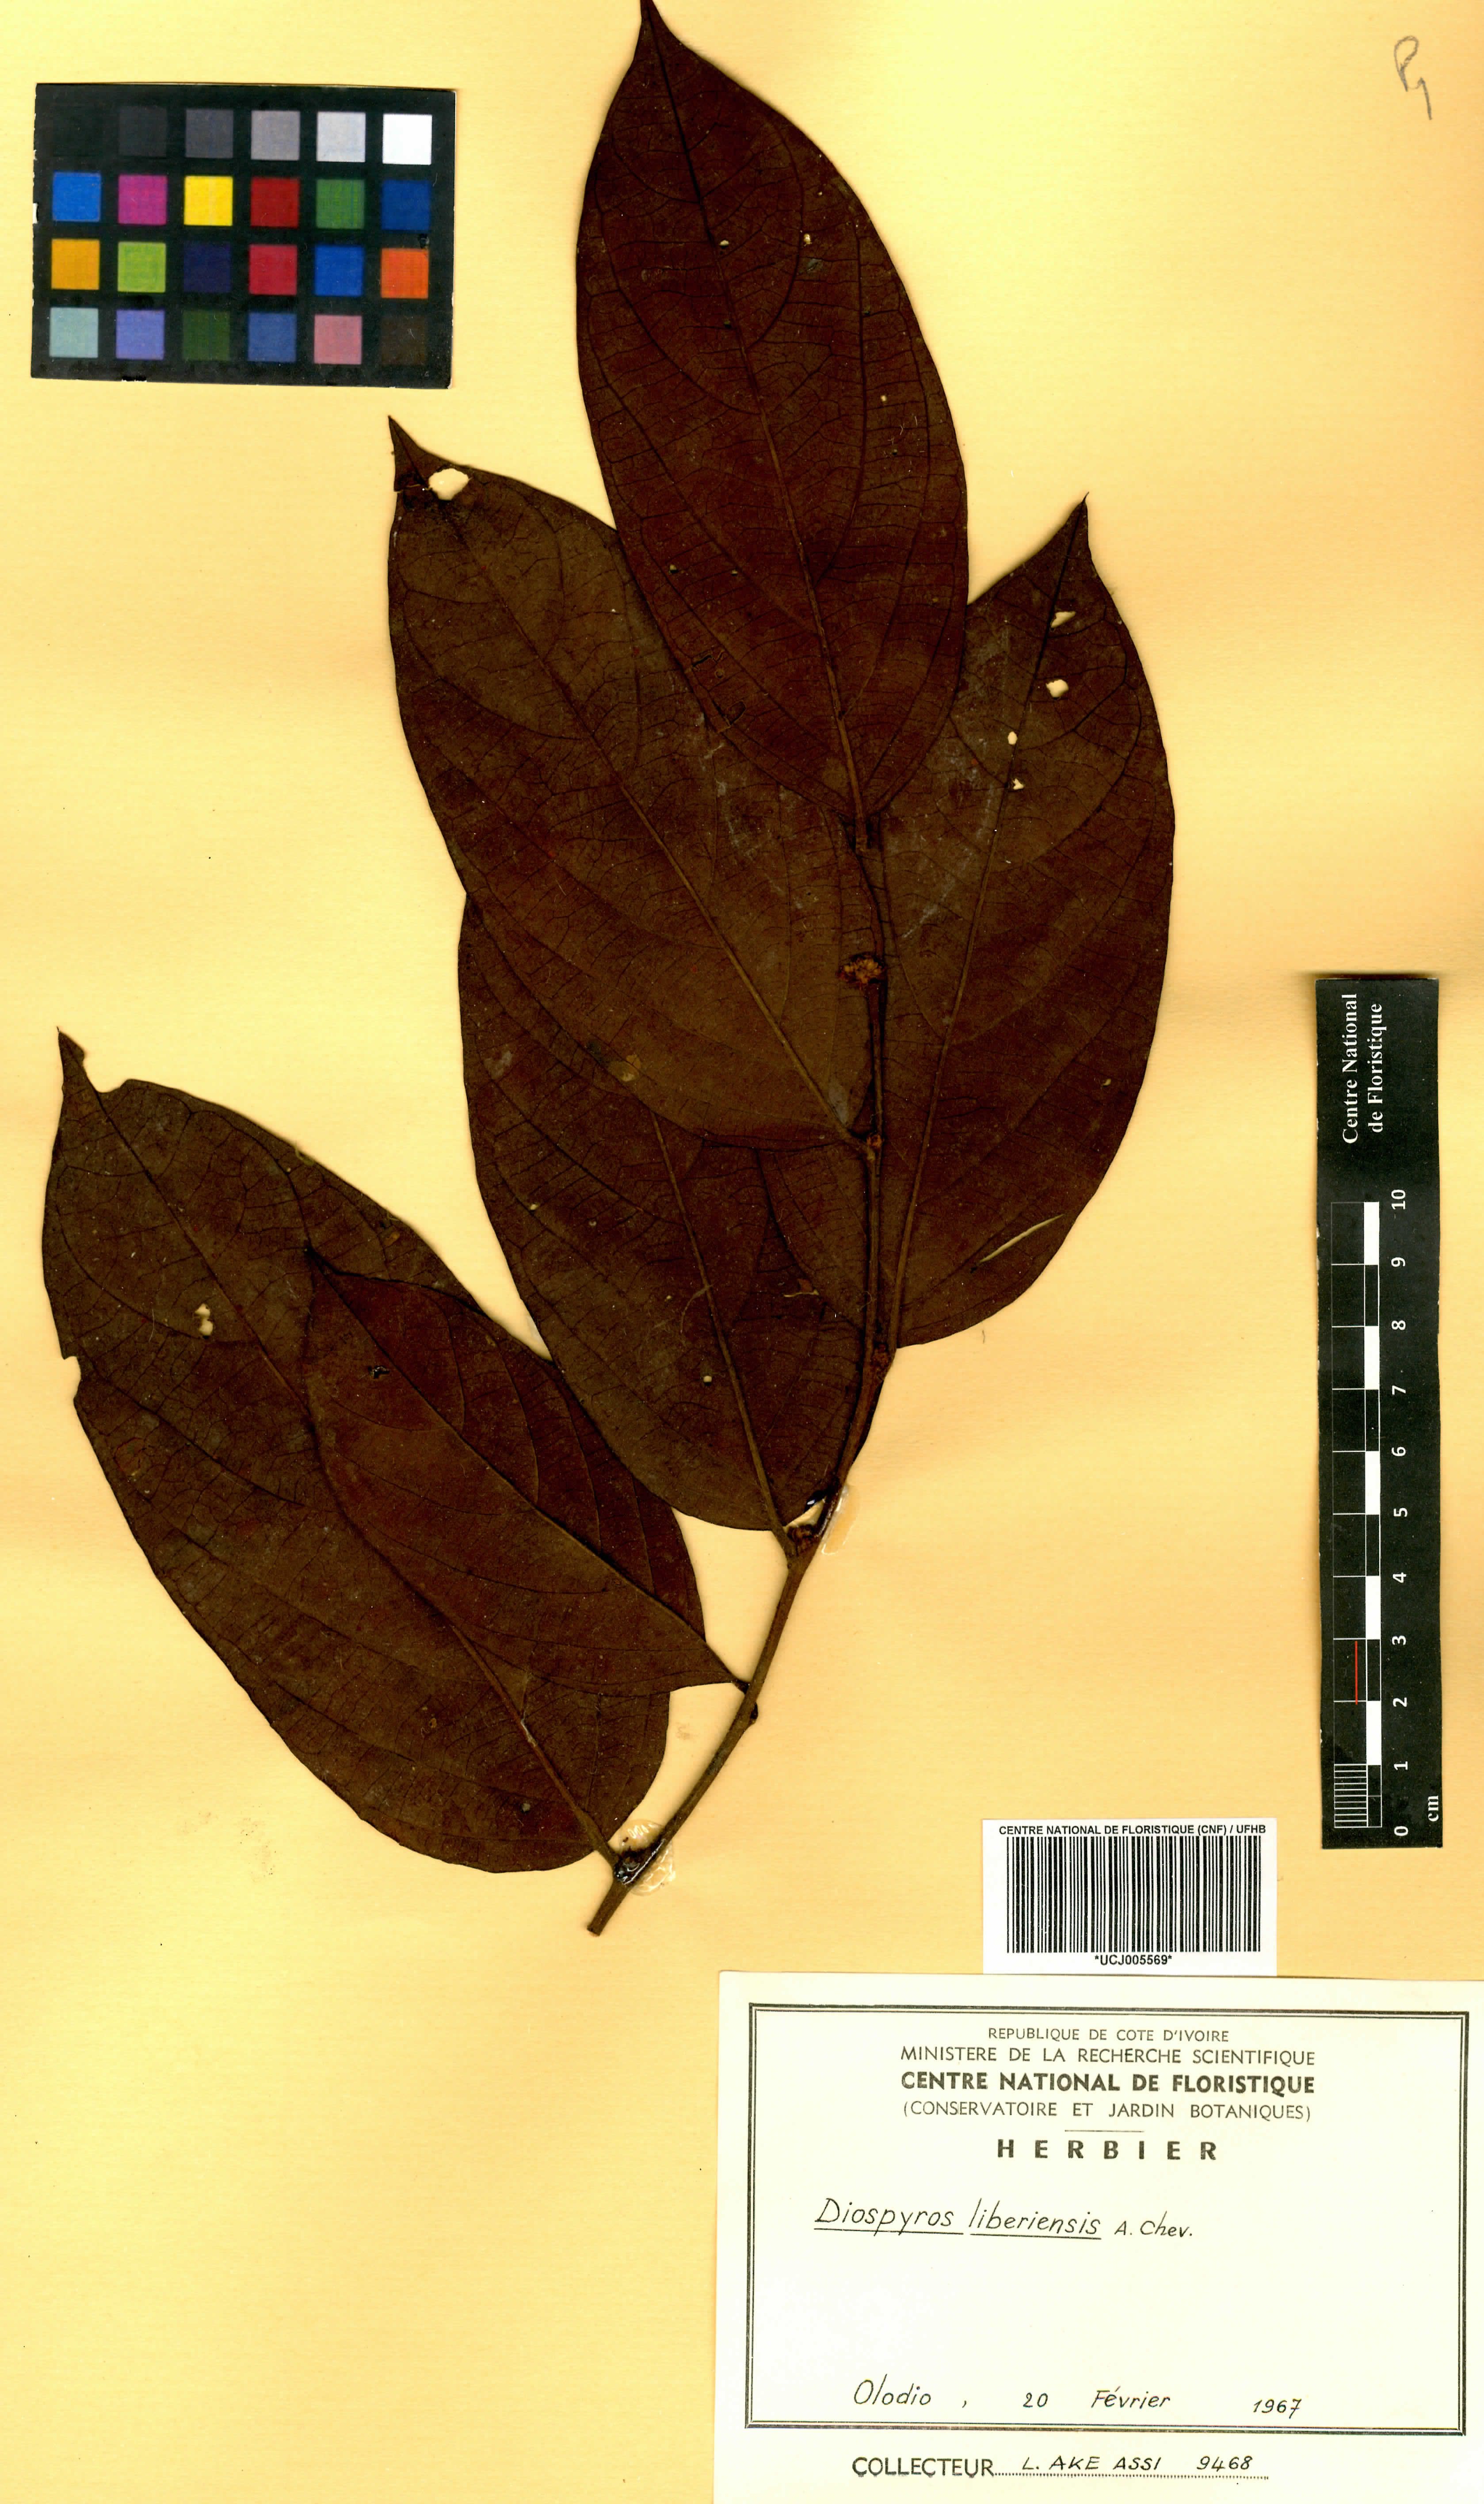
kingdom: Plantae
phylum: Tracheophyta
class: Magnoliopsida
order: Ericales
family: Ebenaceae
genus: Diospyros
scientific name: Diospyros liberiensis
